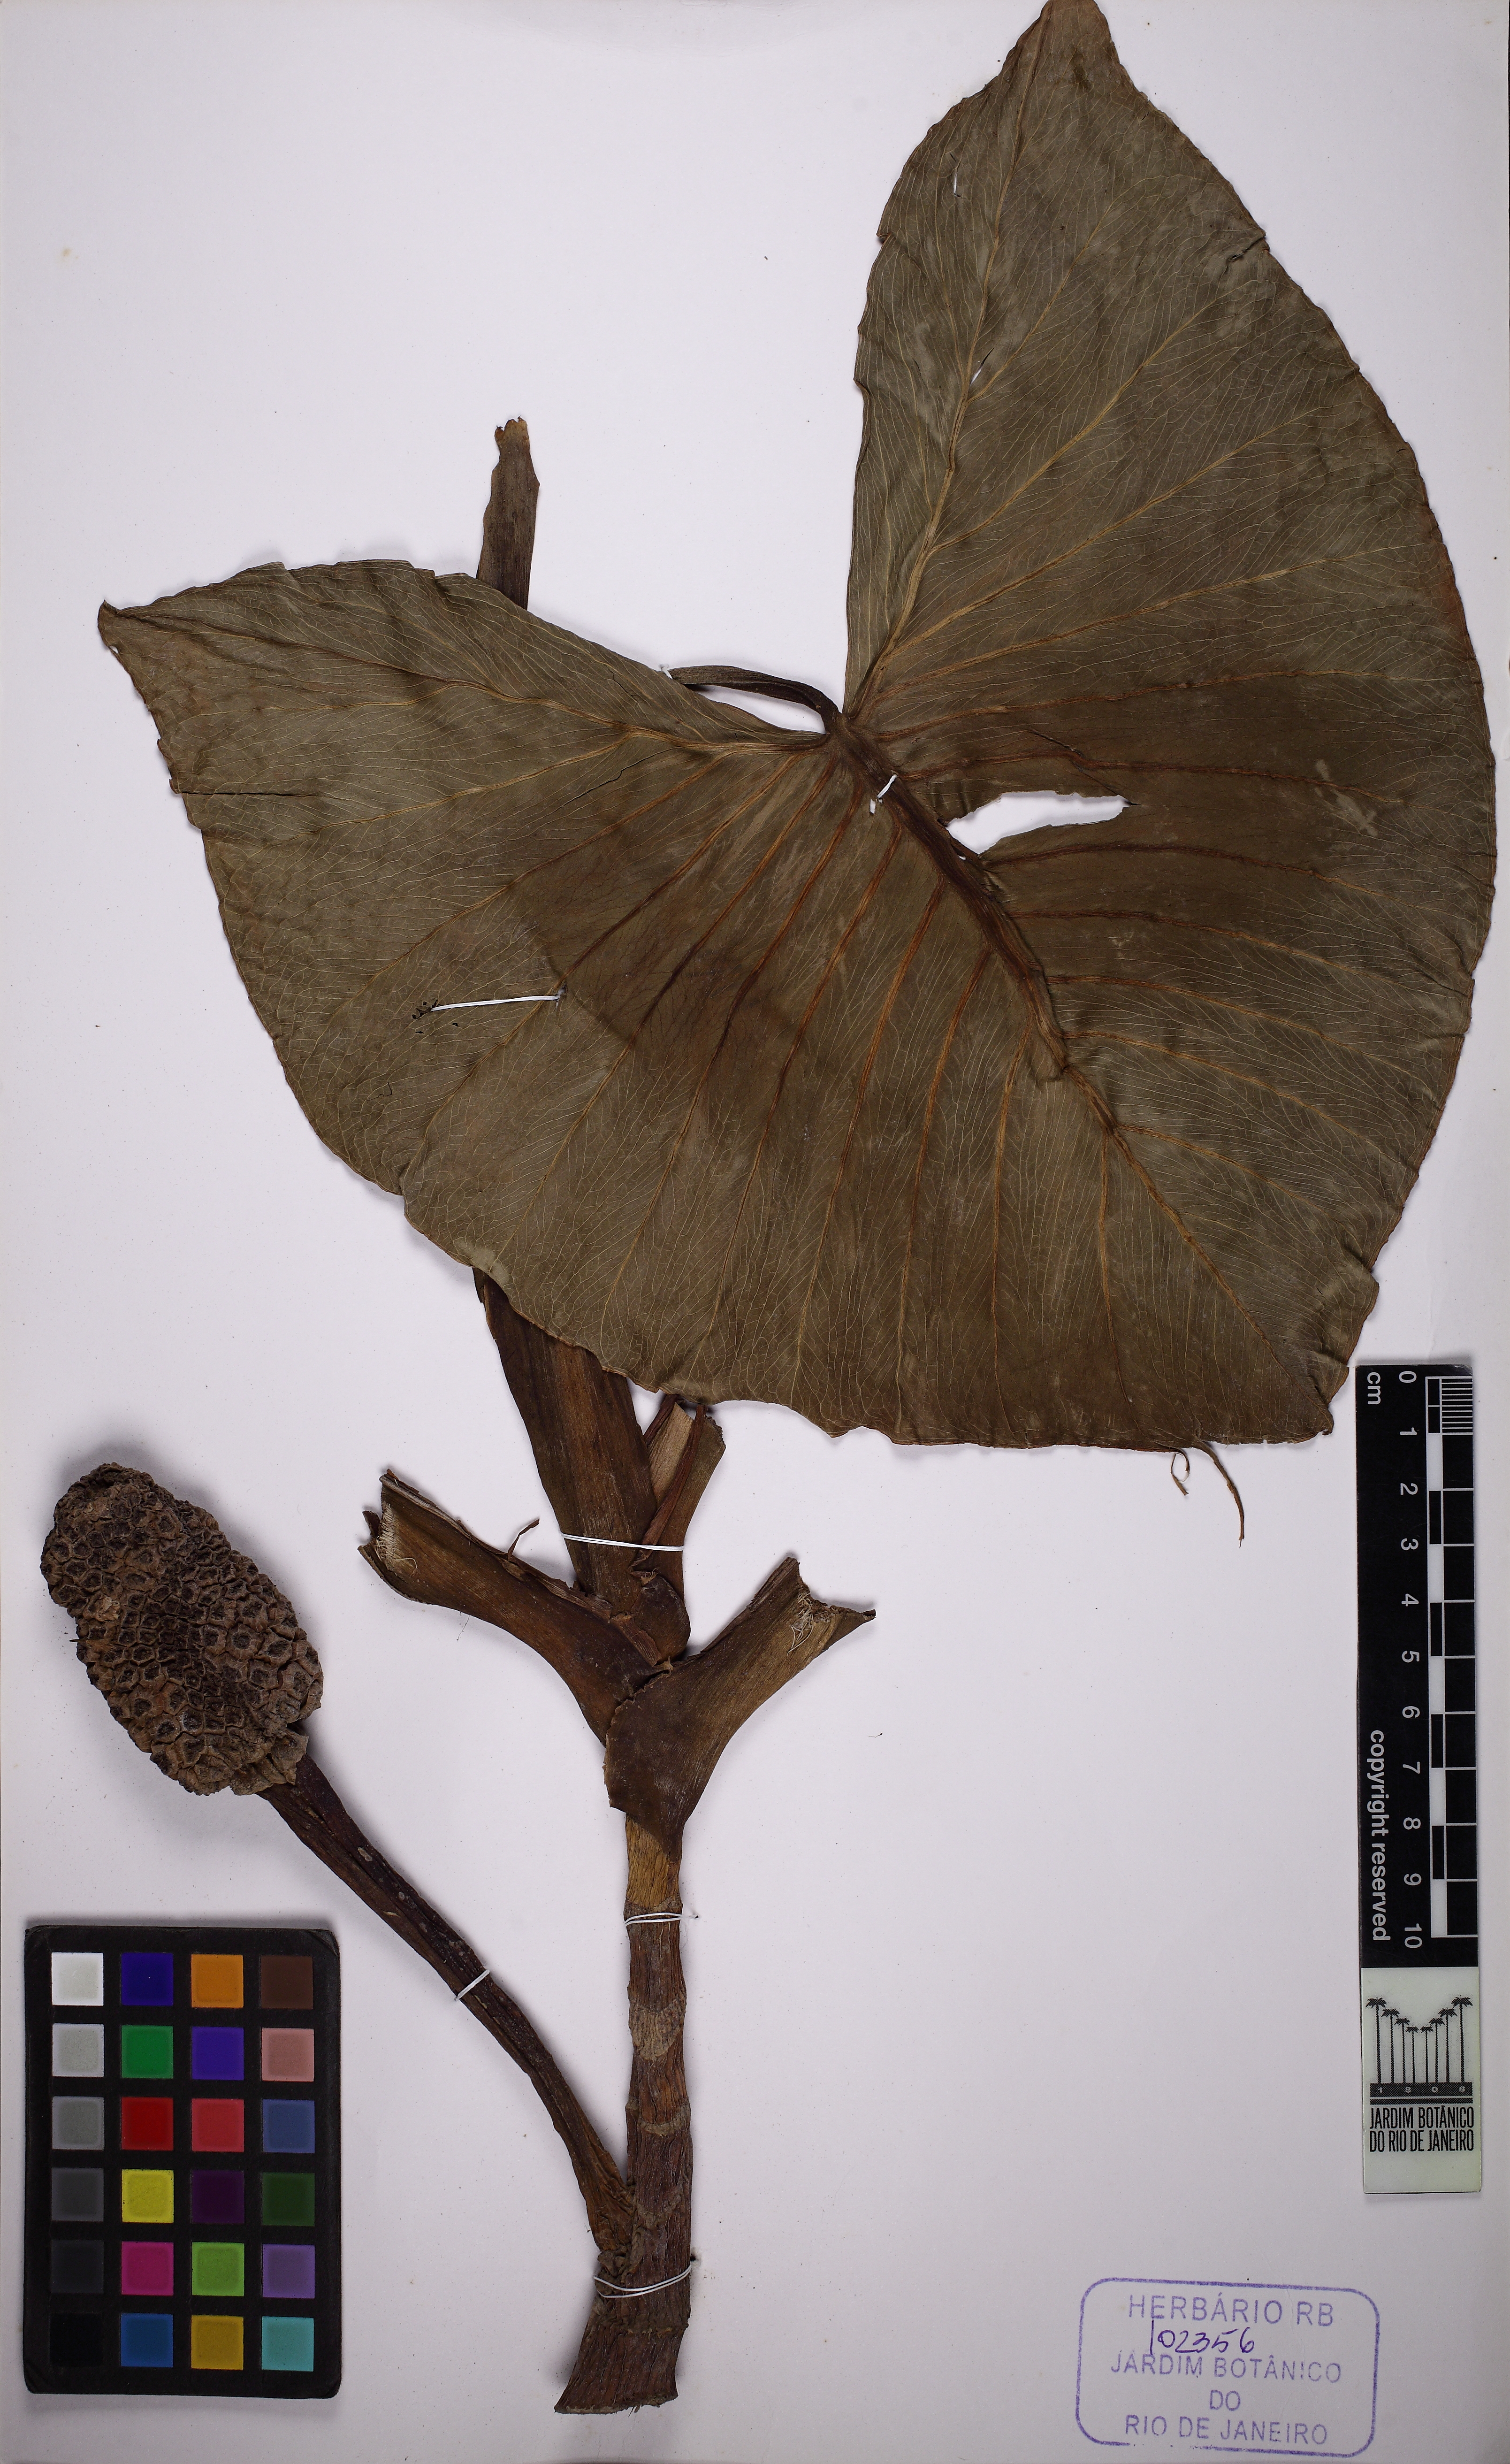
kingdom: Plantae
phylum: Tracheophyta
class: Liliopsida
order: Alismatales
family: Araceae
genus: Montrichardia
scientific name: Montrichardia linifera
